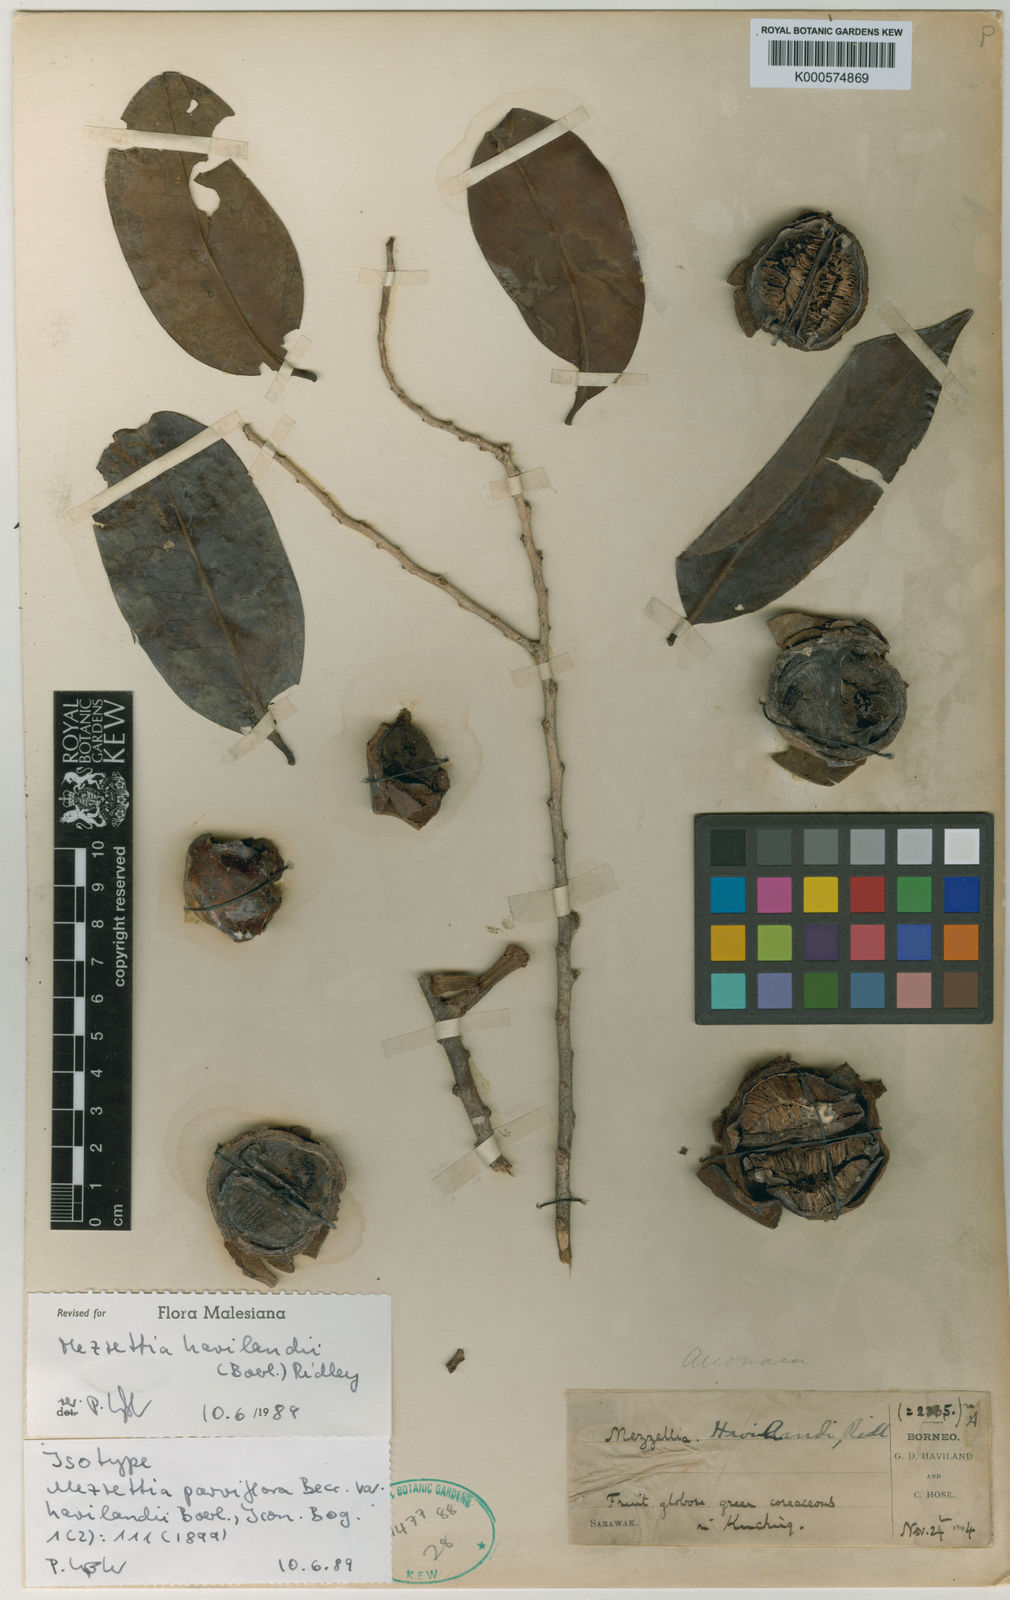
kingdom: Plantae
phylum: Tracheophyta
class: Magnoliopsida
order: Magnoliales
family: Annonaceae
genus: Mezzettia
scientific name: Mezzettia havilandii
